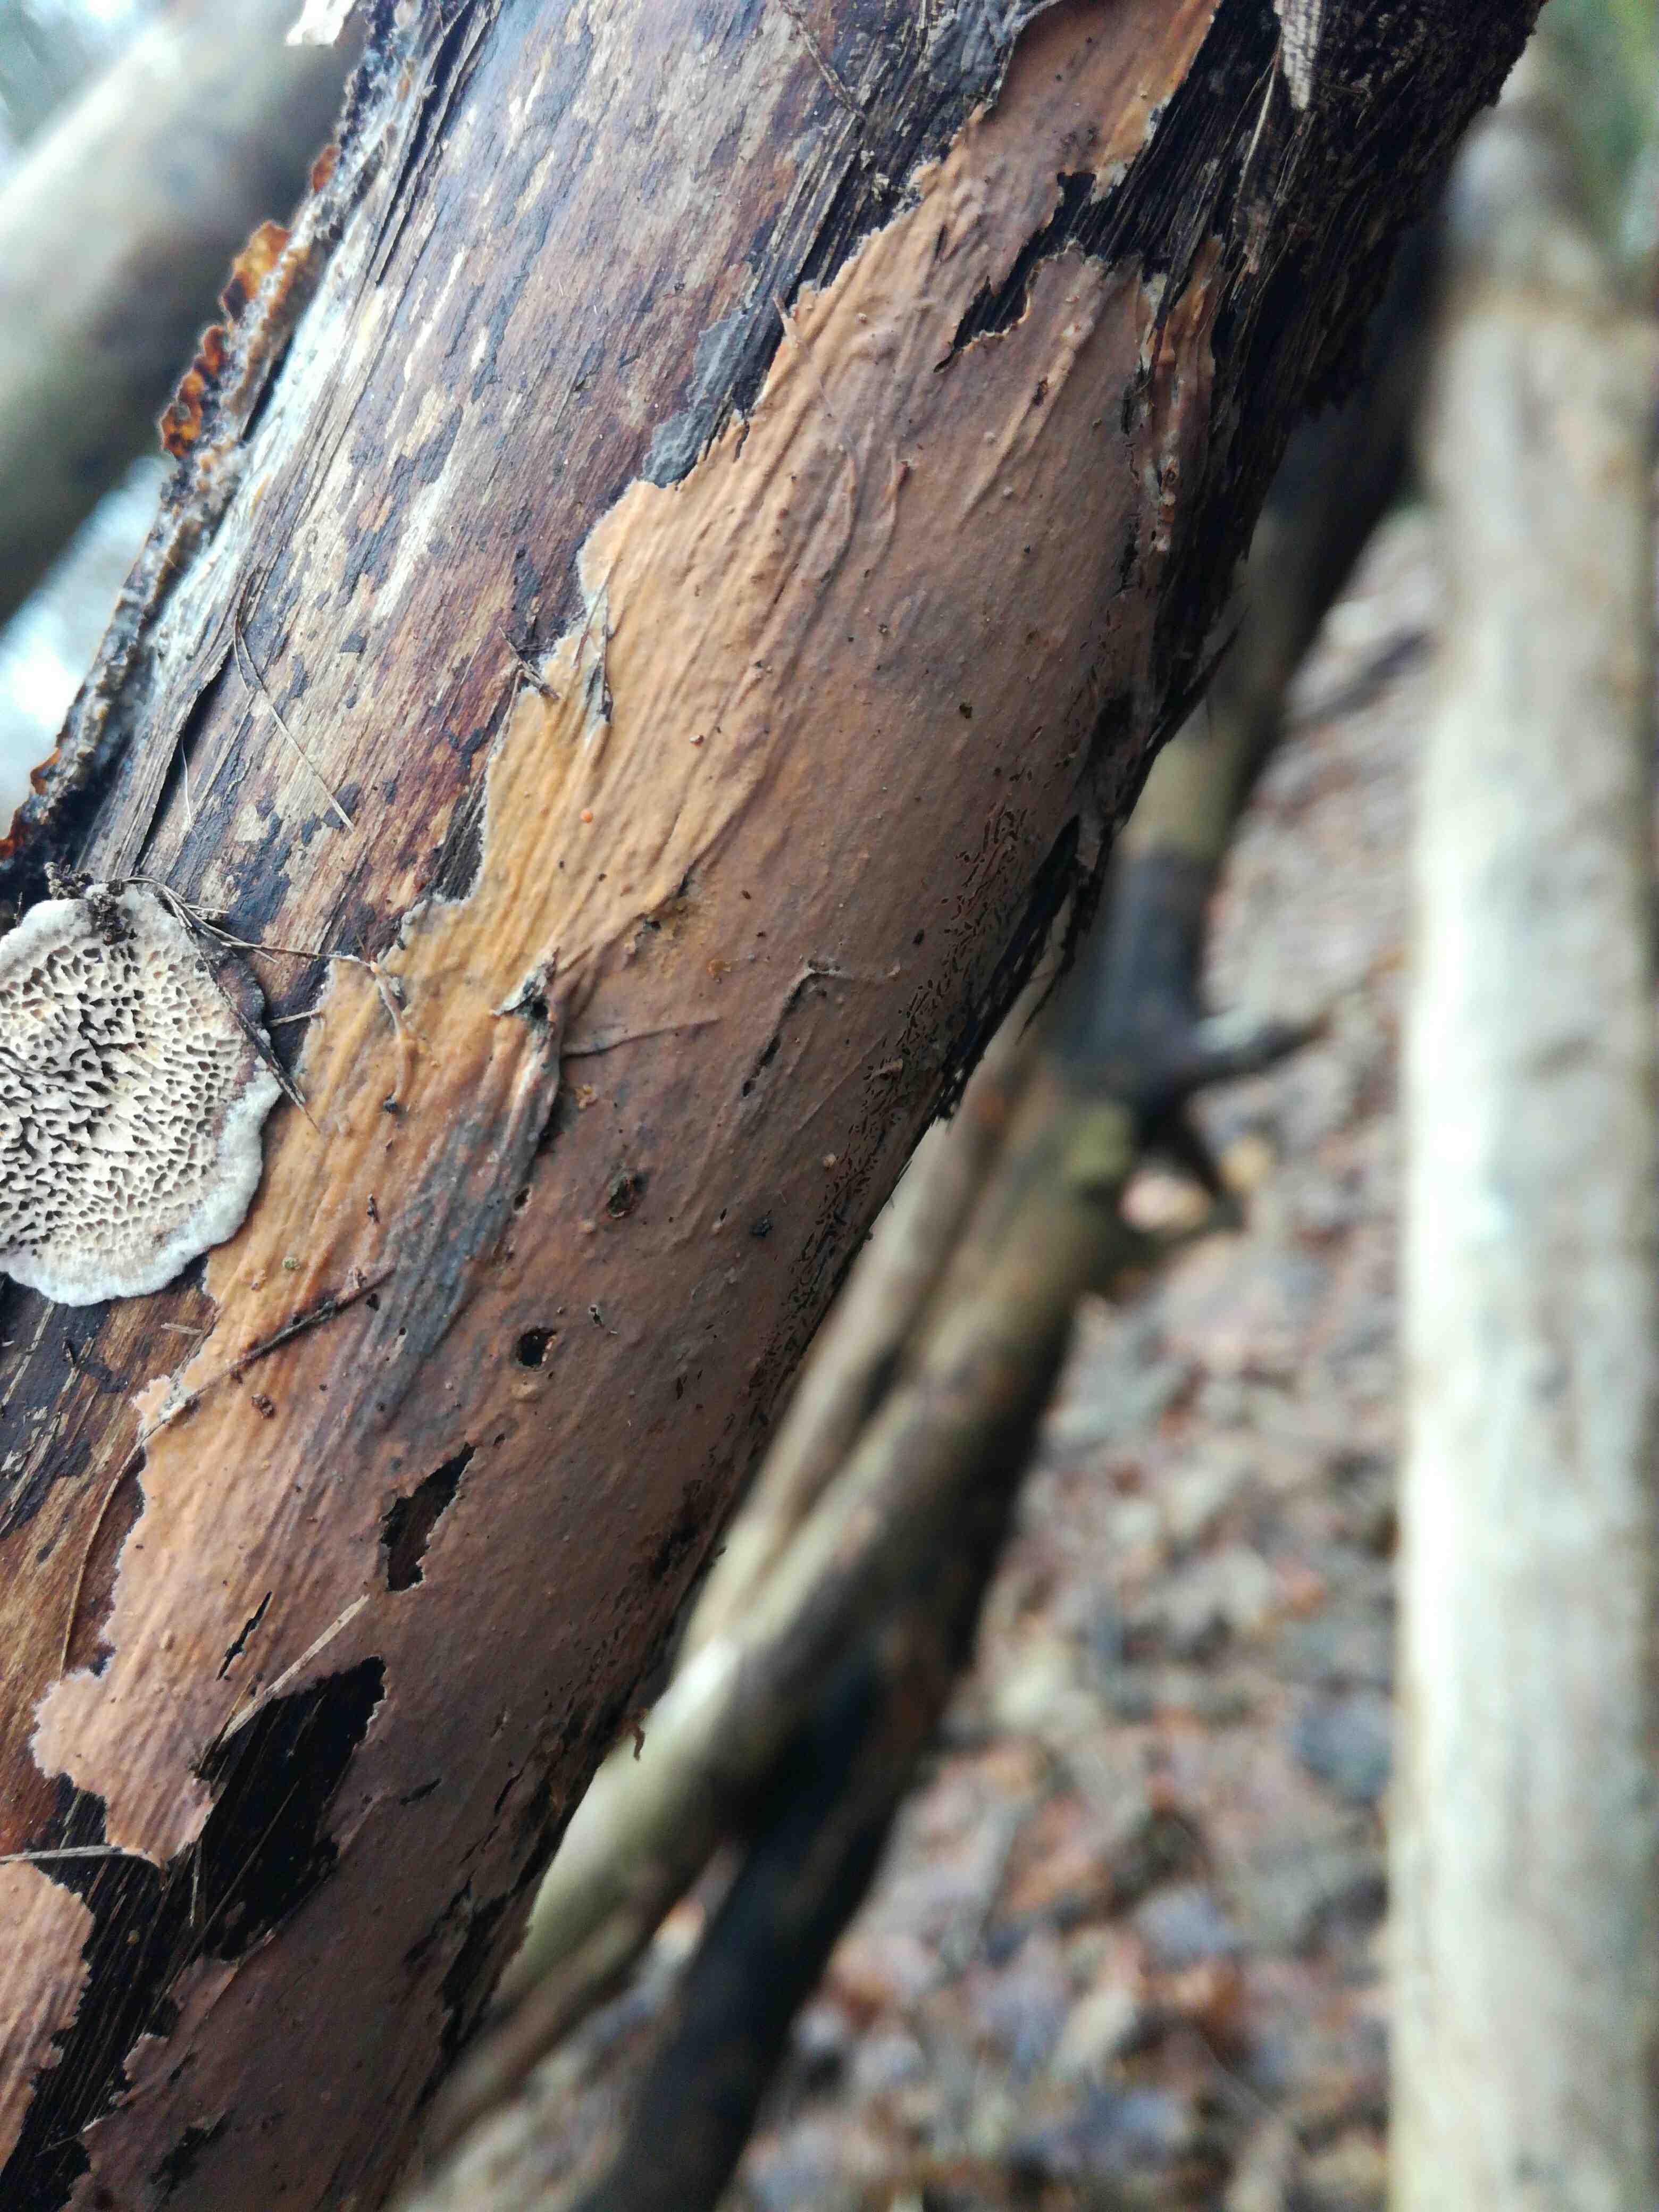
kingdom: Fungi
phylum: Basidiomycota
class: Agaricomycetes
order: Russulales
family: Peniophoraceae
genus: Peniophora
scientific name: Peniophora incarnata
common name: laksefarvet voksskind
